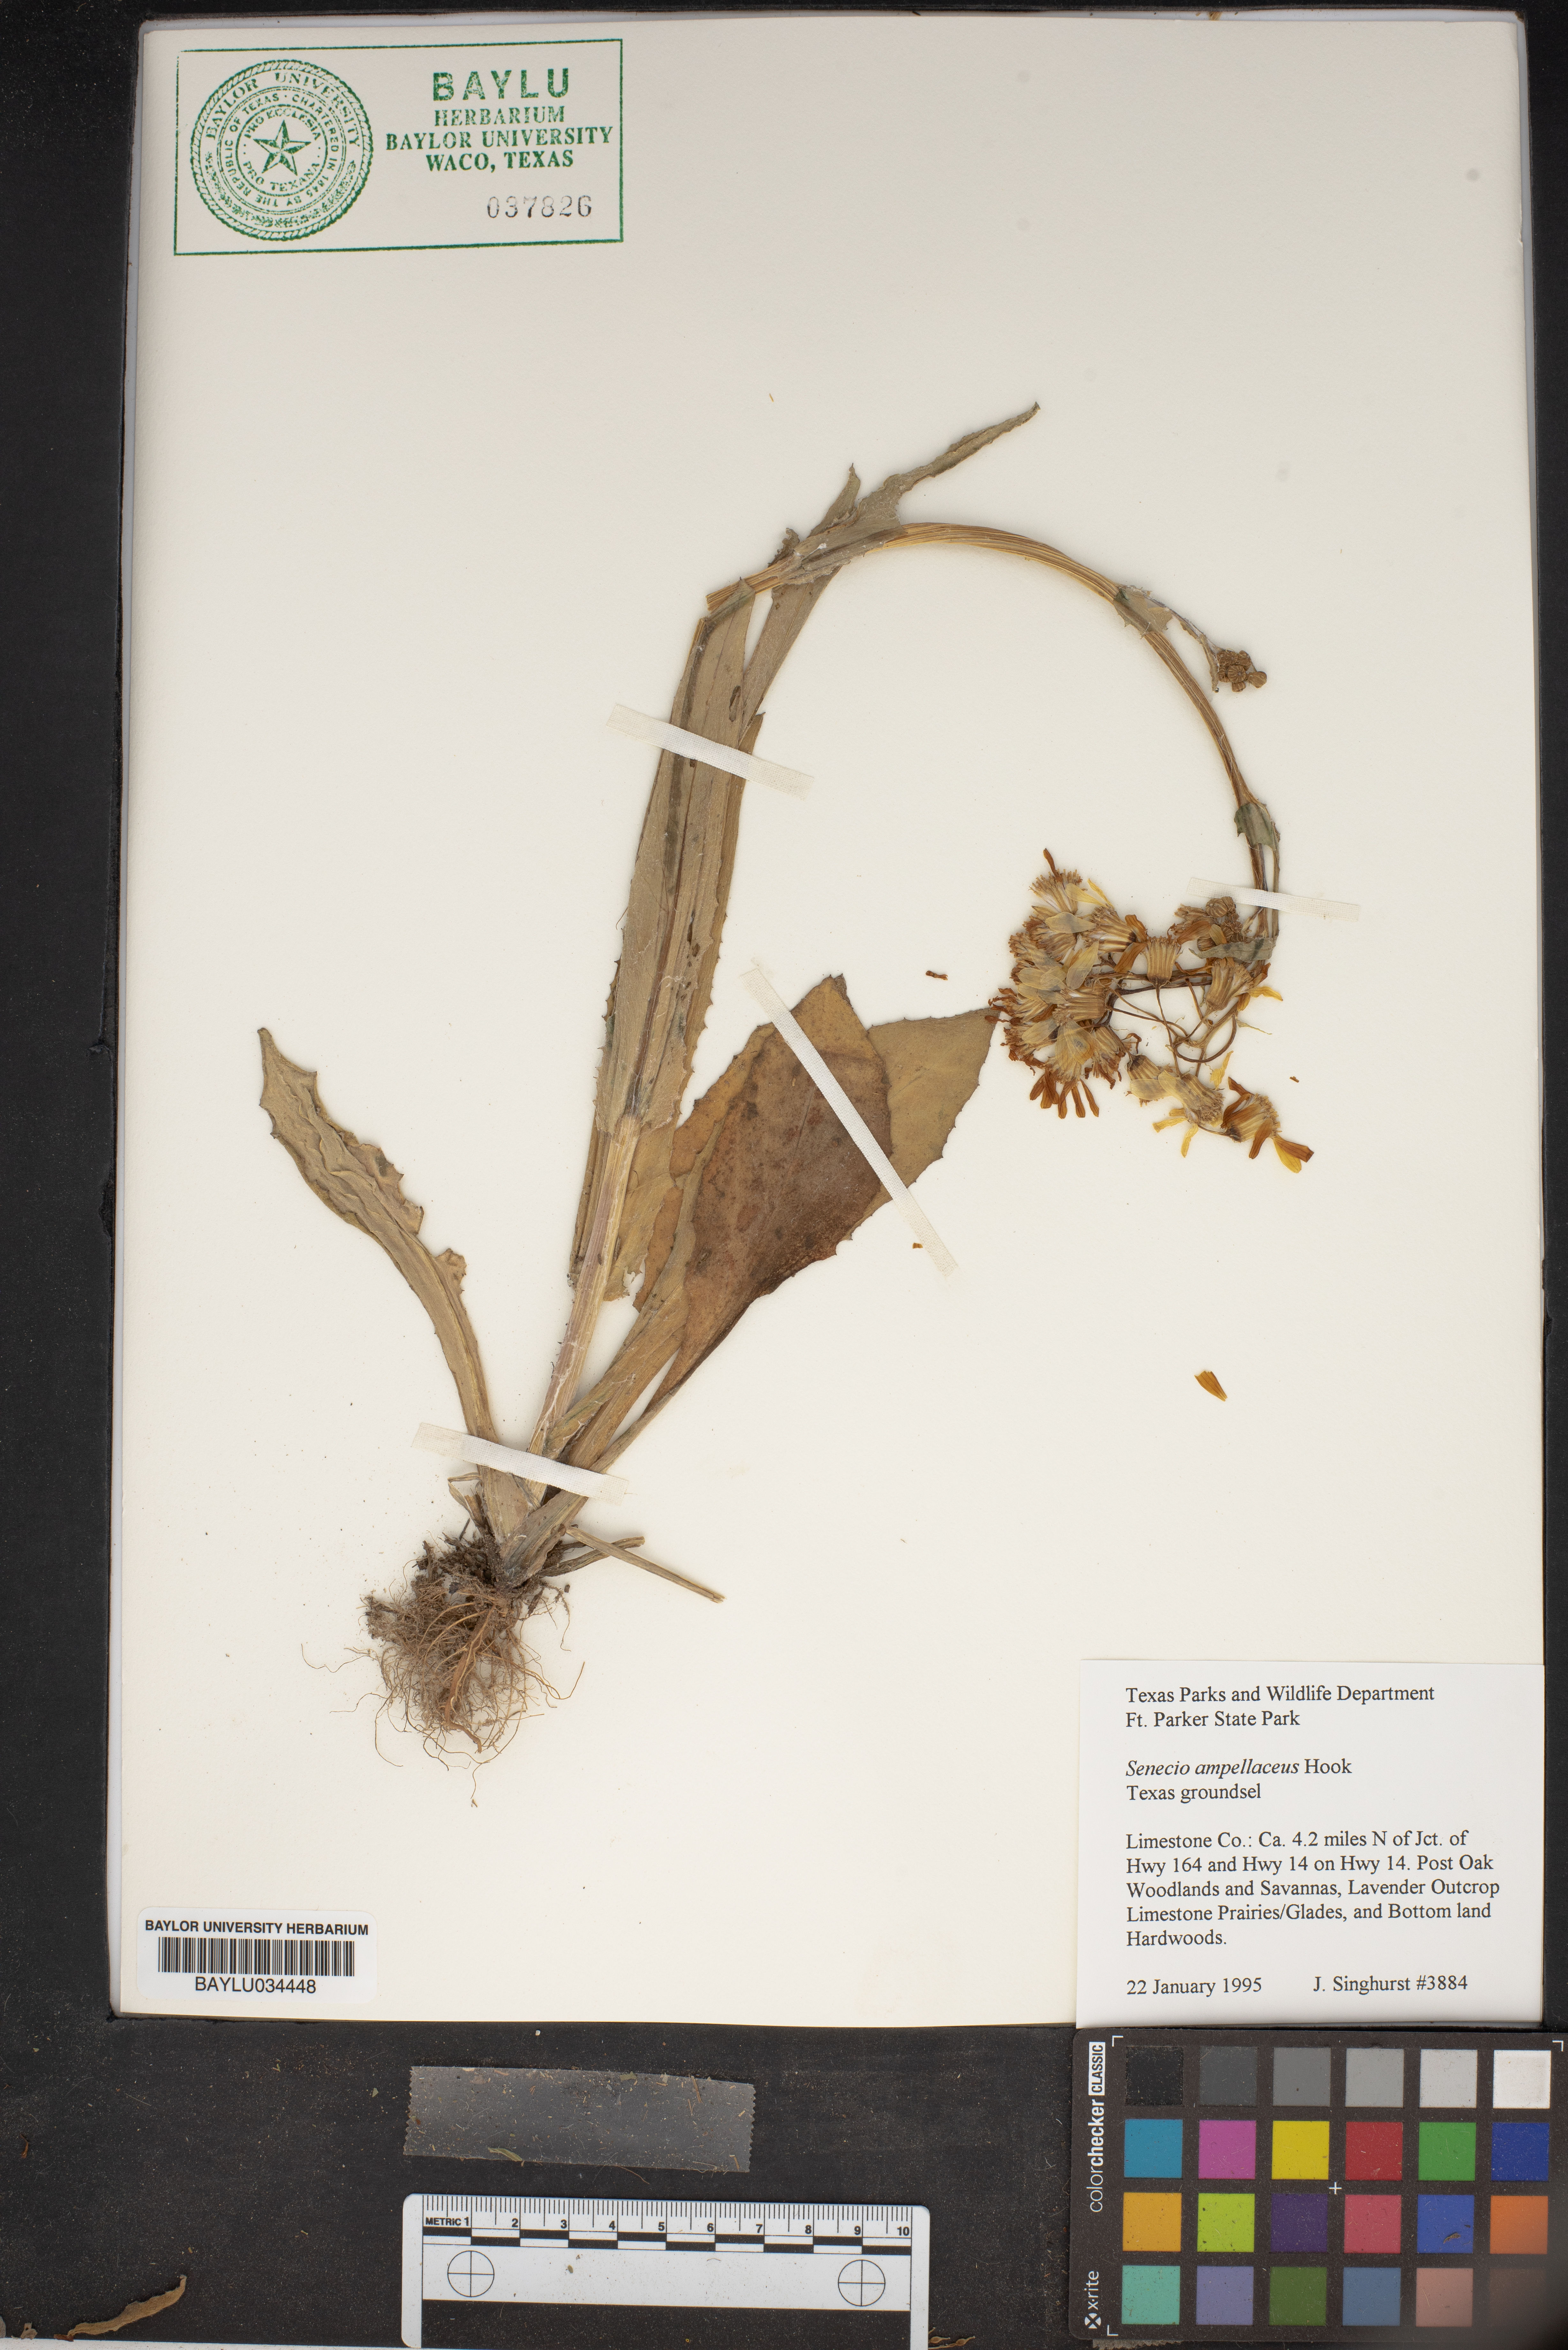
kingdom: Plantae
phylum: Tracheophyta
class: Magnoliopsida
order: Asterales
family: Asteraceae
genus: Senecio
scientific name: Senecio ampullaceus
